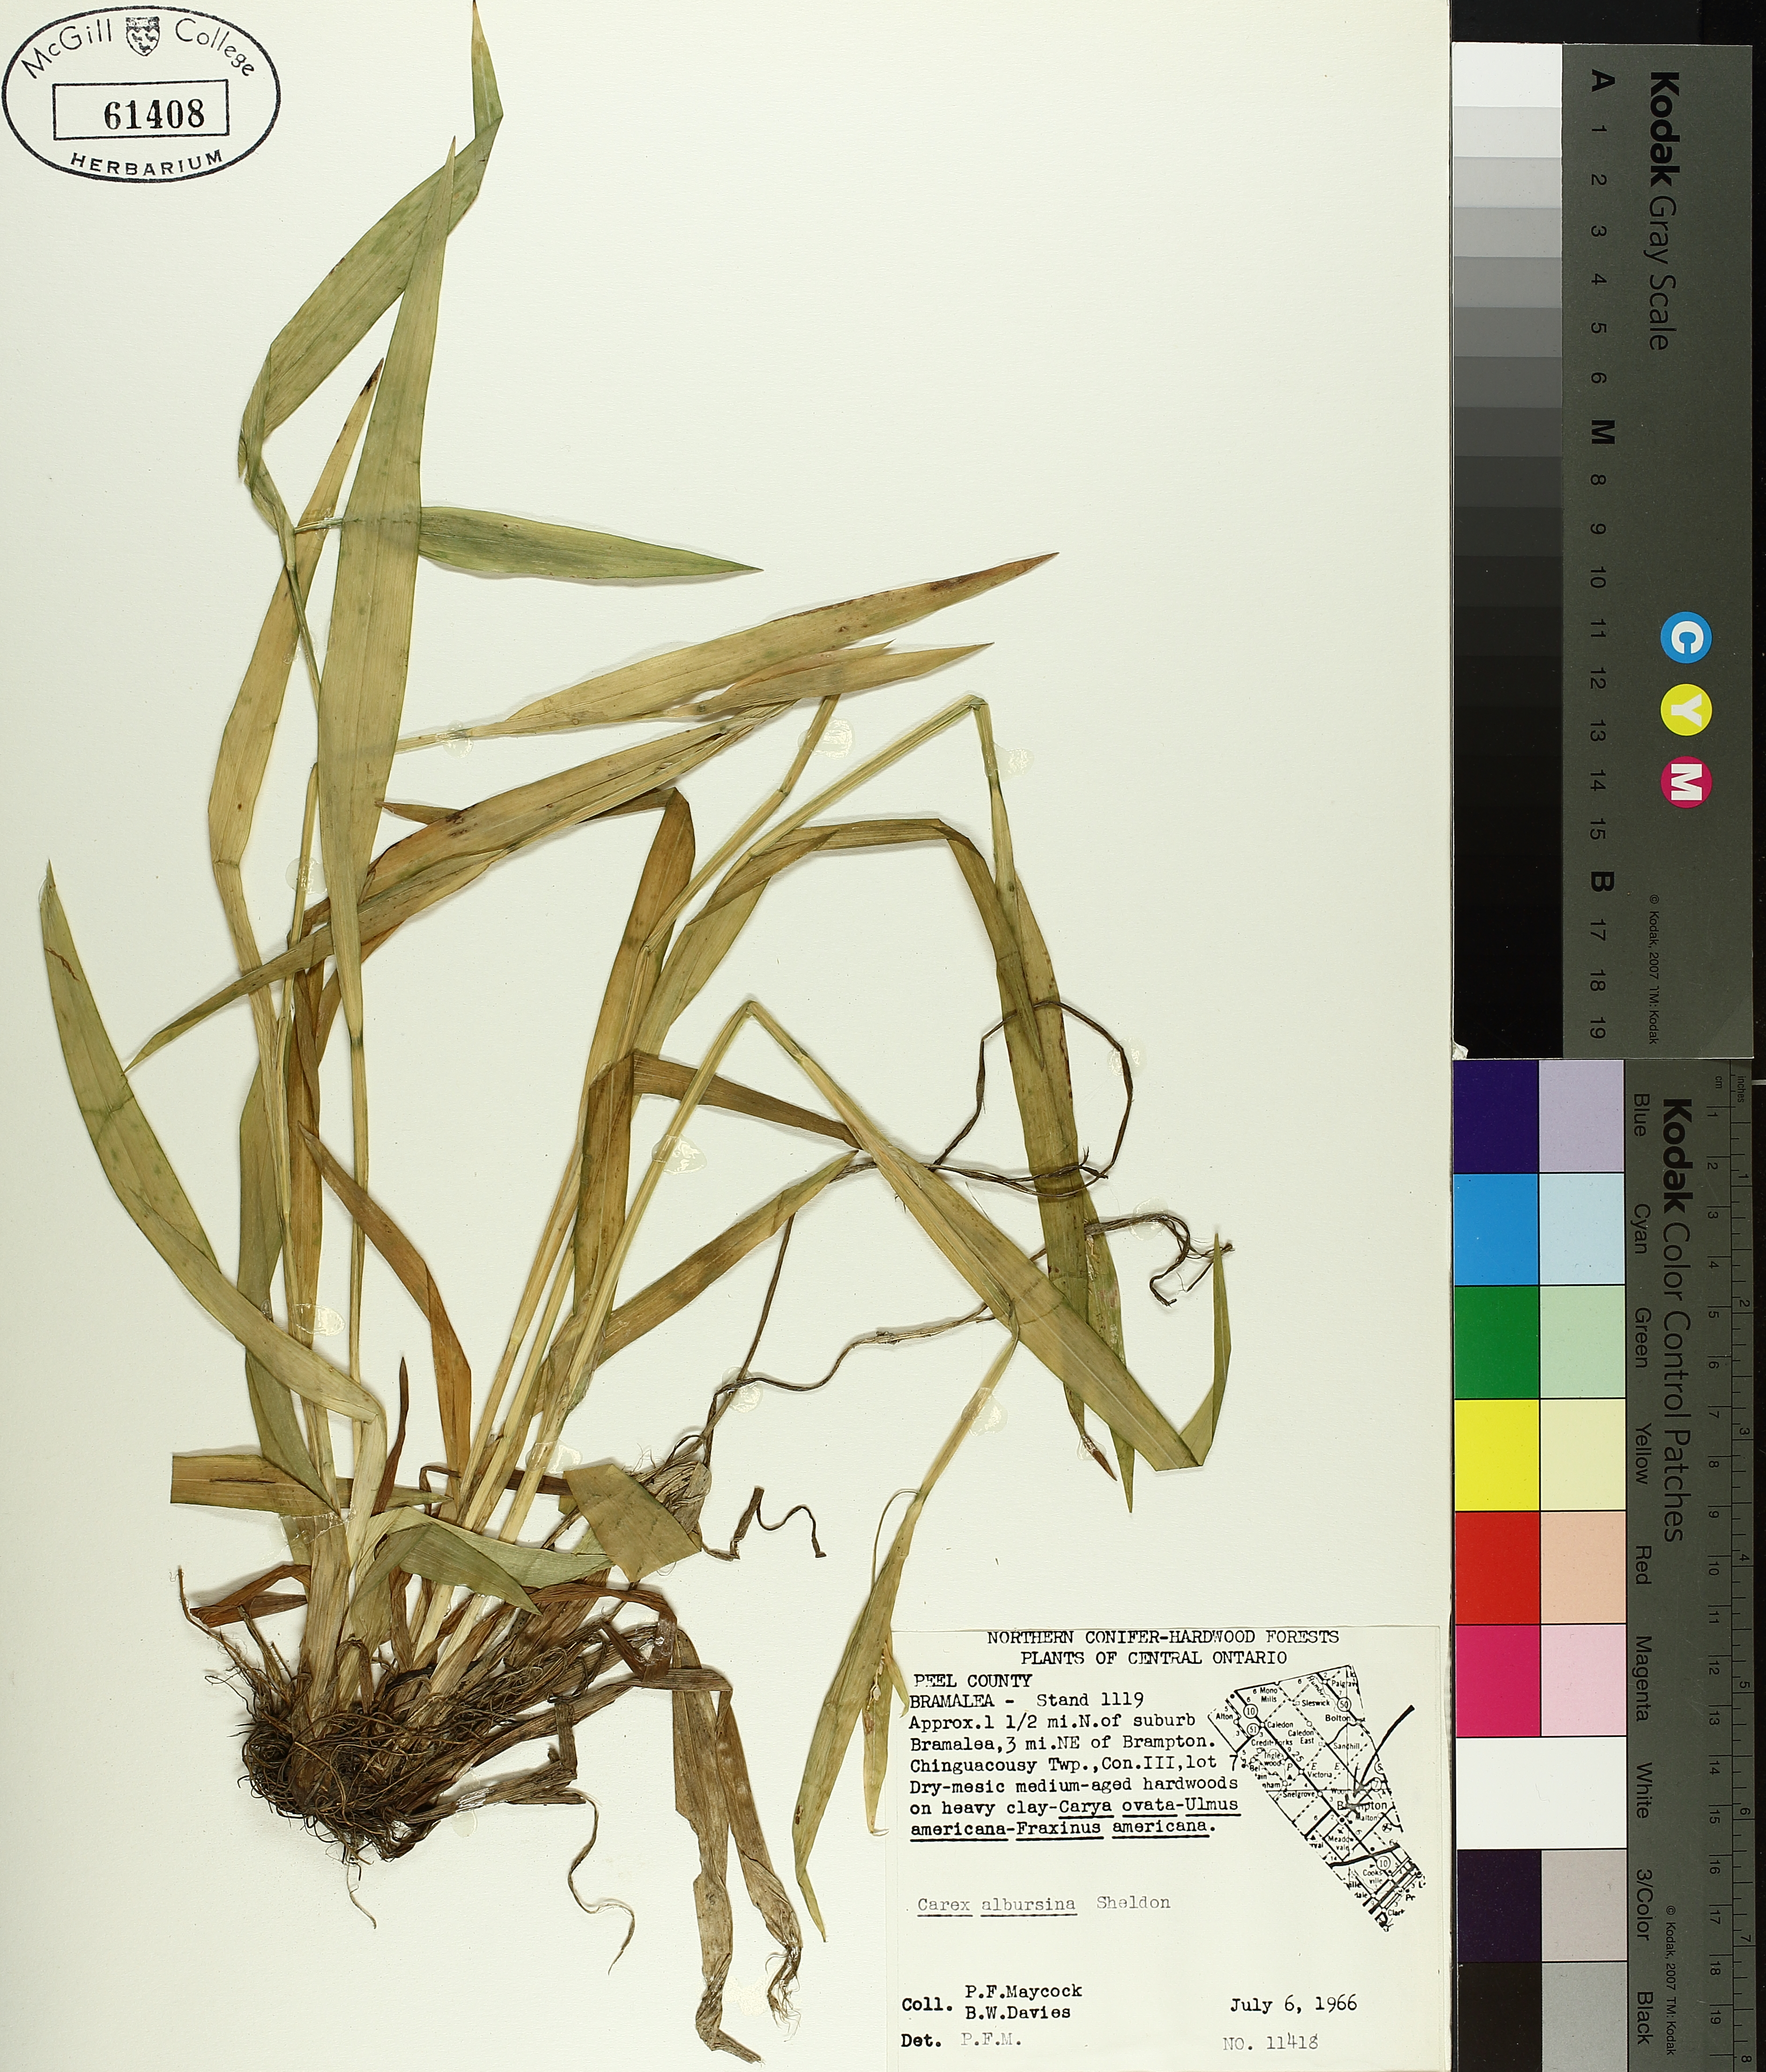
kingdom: Plantae
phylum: Tracheophyta
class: Liliopsida
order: Poales
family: Cyperaceae
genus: Carex
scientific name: Carex albursina
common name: Blunt-scale wood sedge
